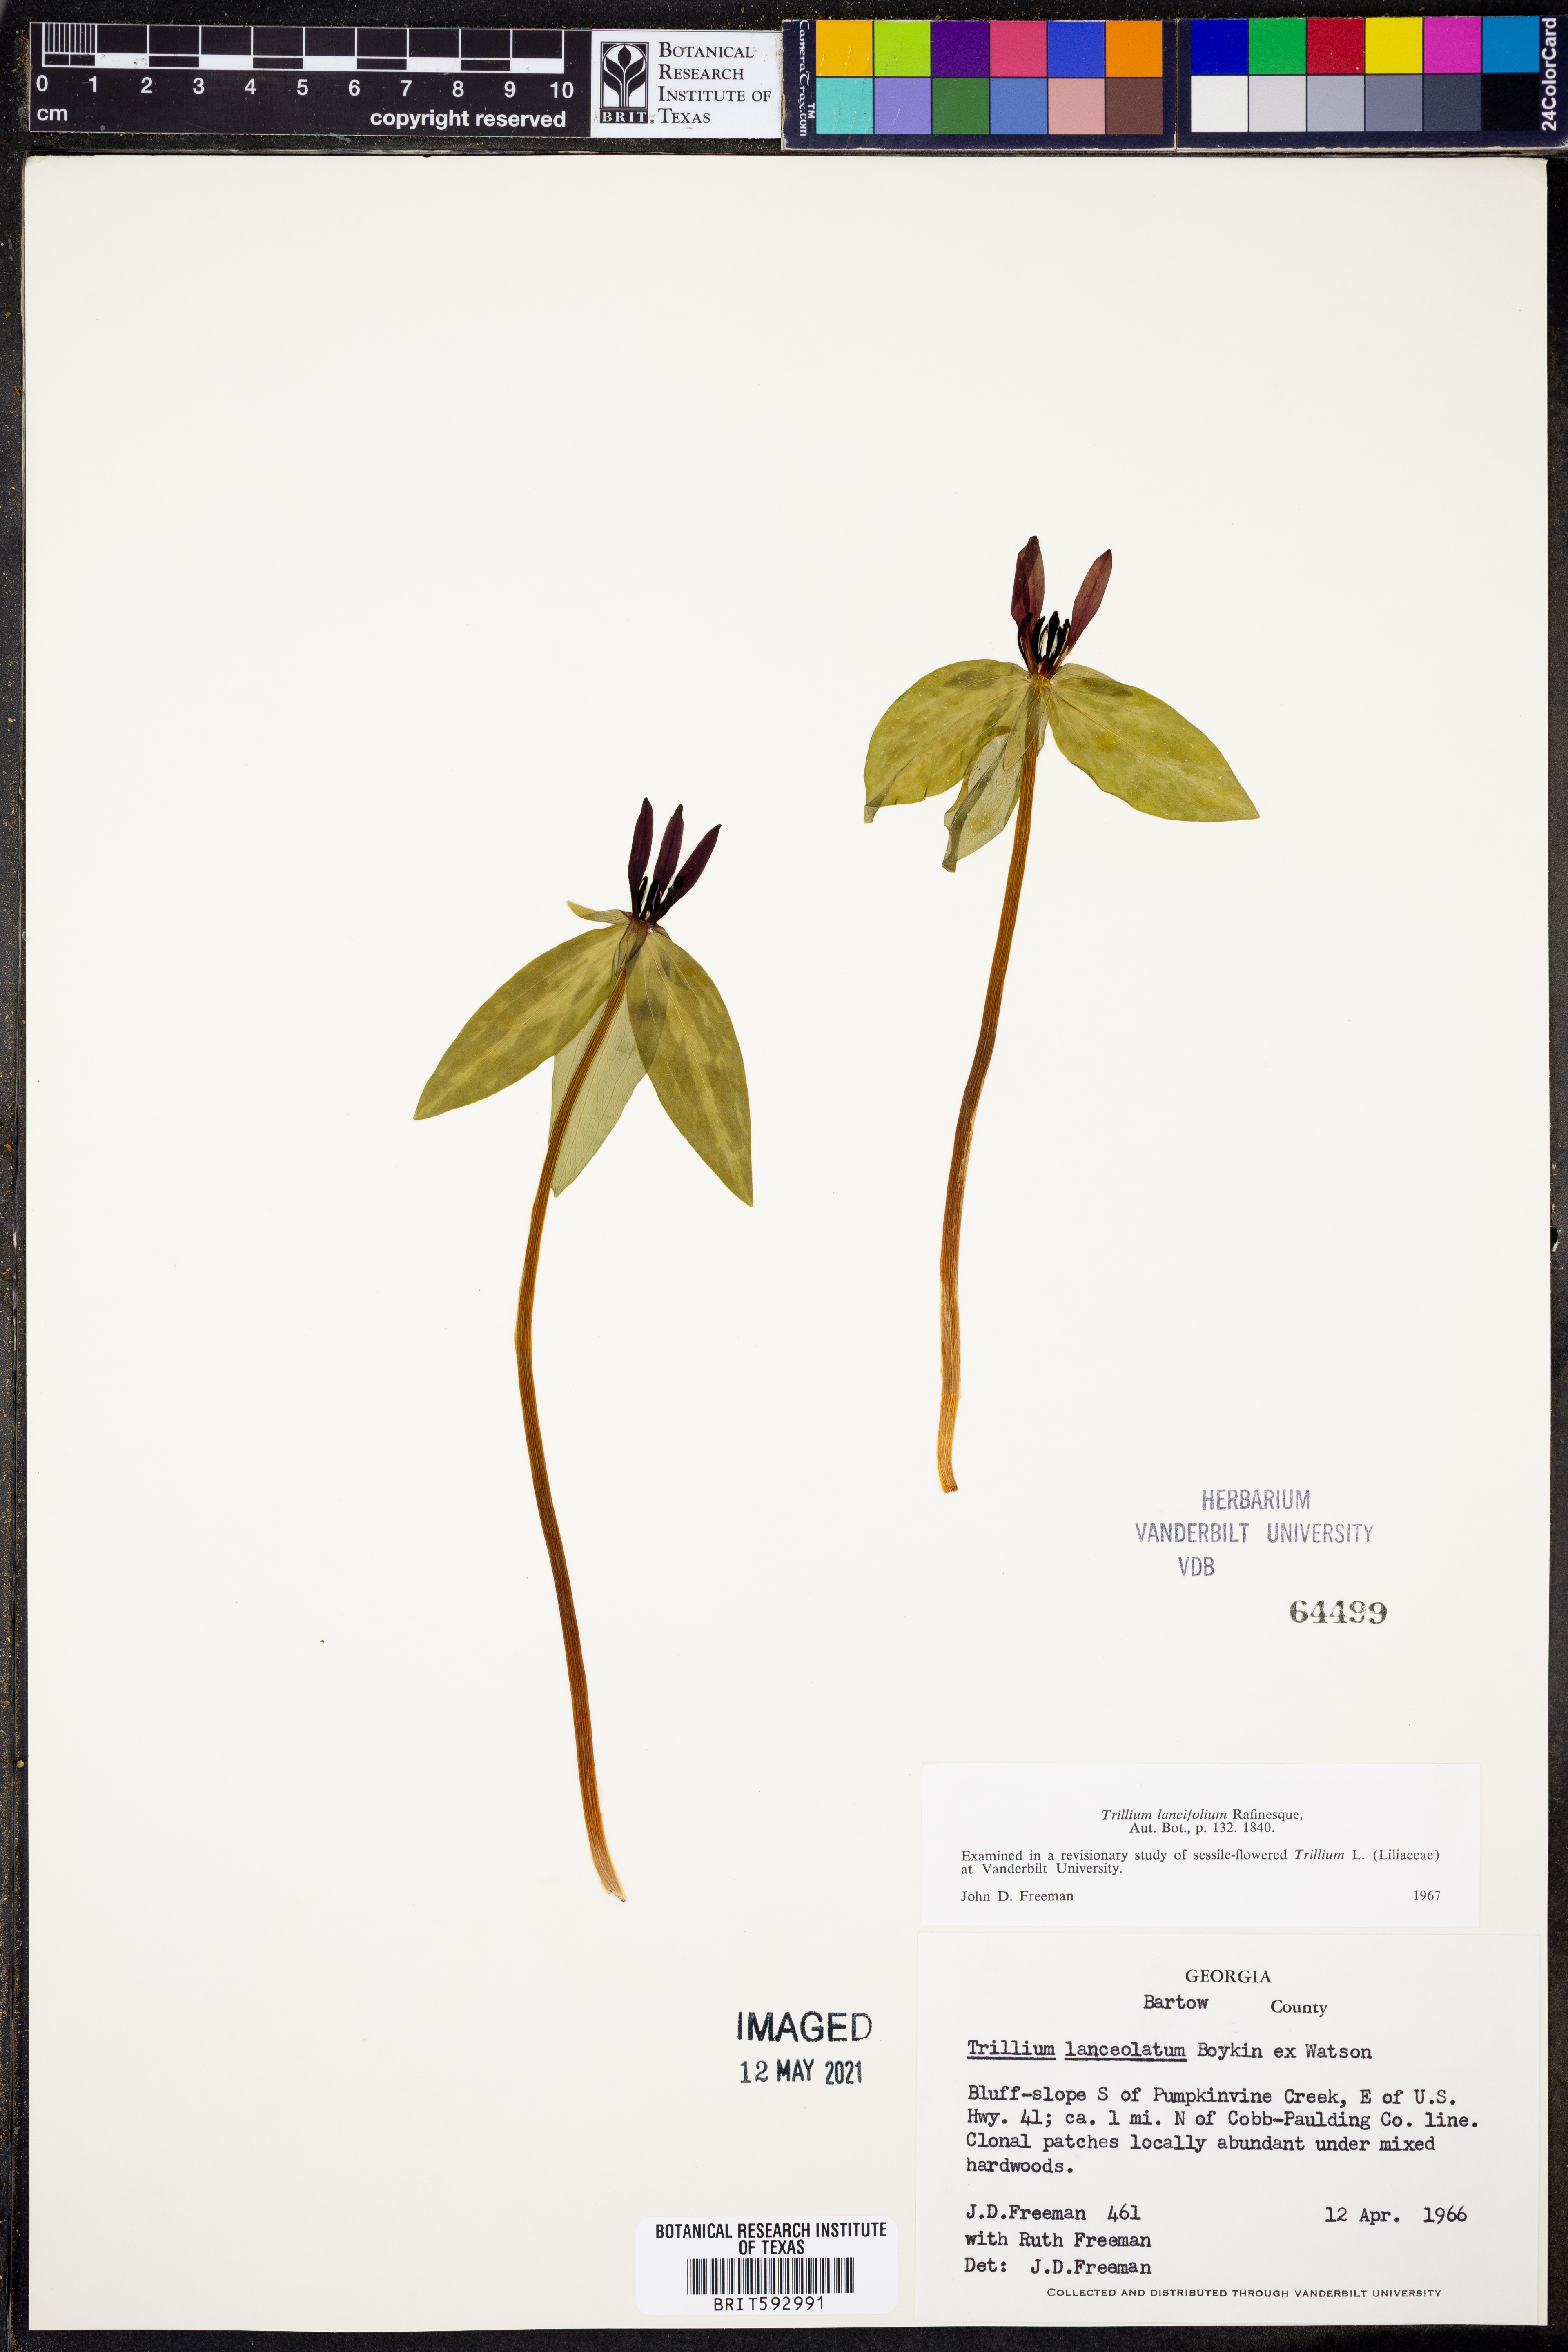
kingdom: Plantae
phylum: Tracheophyta
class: Liliopsida
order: Liliales
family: Melanthiaceae
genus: Trillium
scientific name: Trillium lancifolium
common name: Lance-leaved trillium
